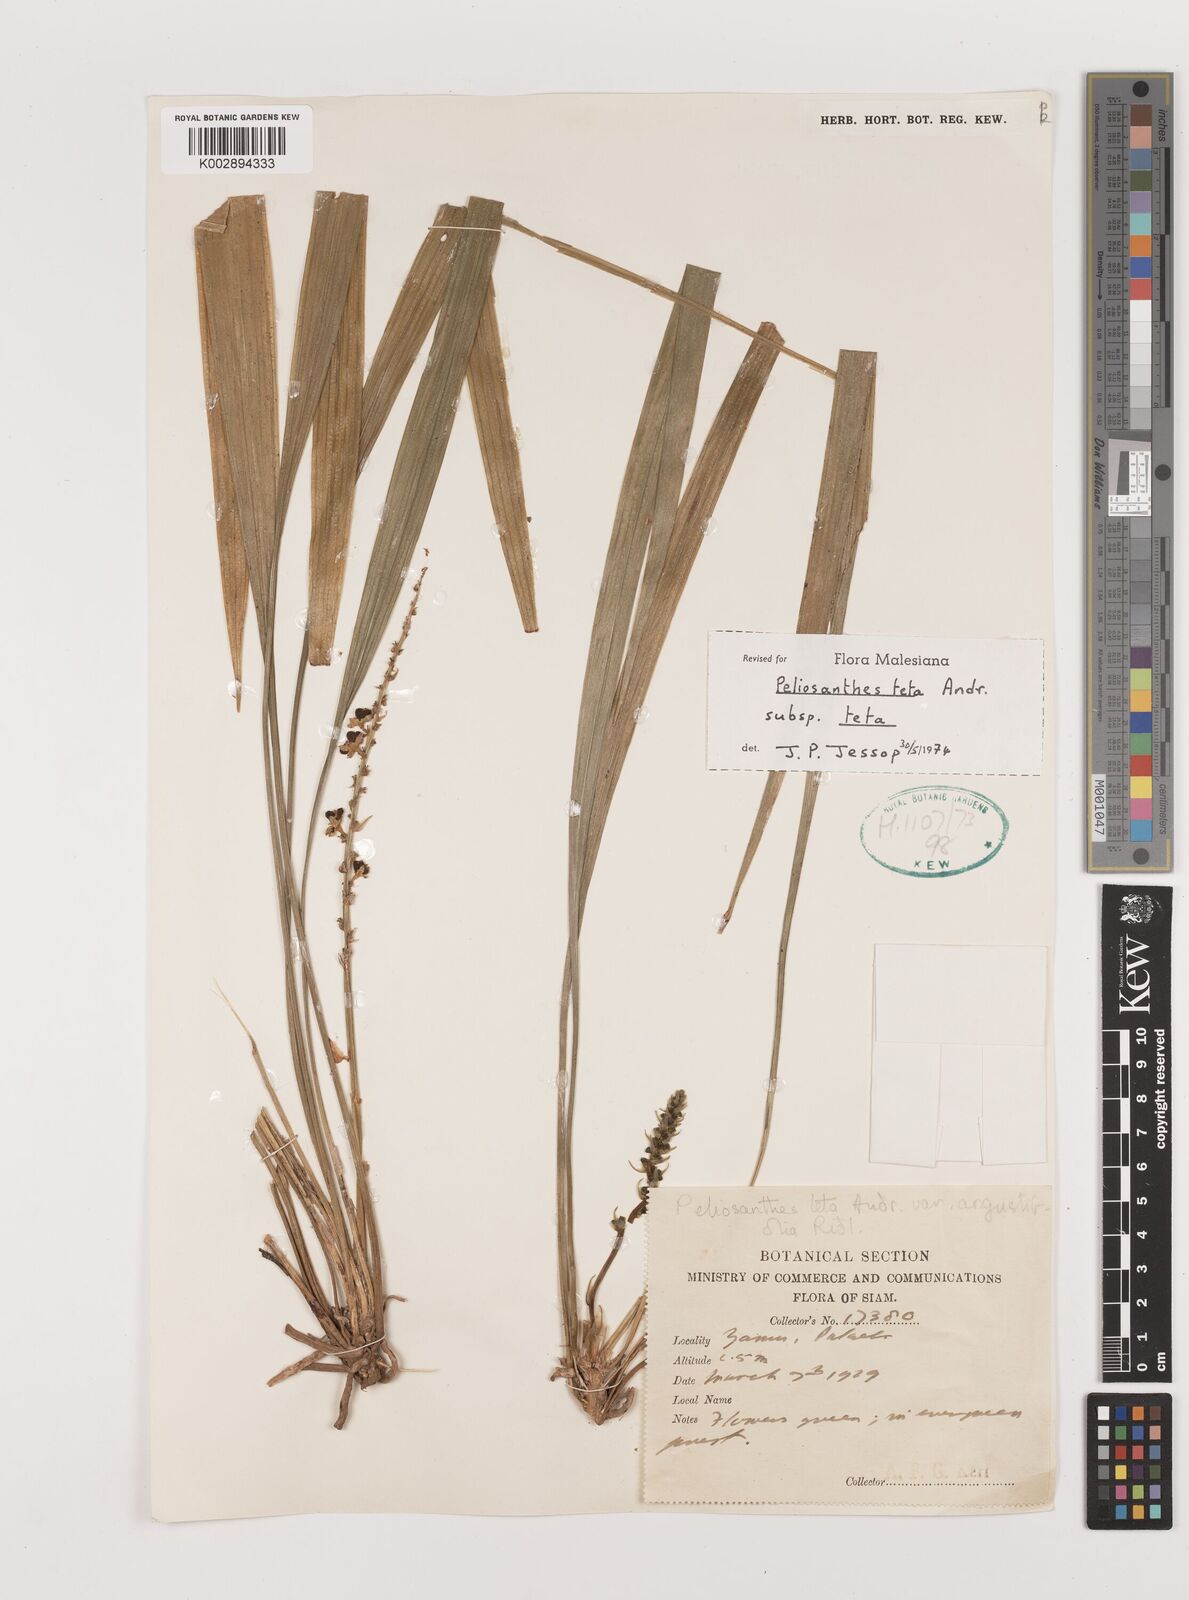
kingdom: Plantae
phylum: Tracheophyta
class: Liliopsida
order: Asparagales
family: Asparagaceae
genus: Peliosanthes
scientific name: Peliosanthes teta
